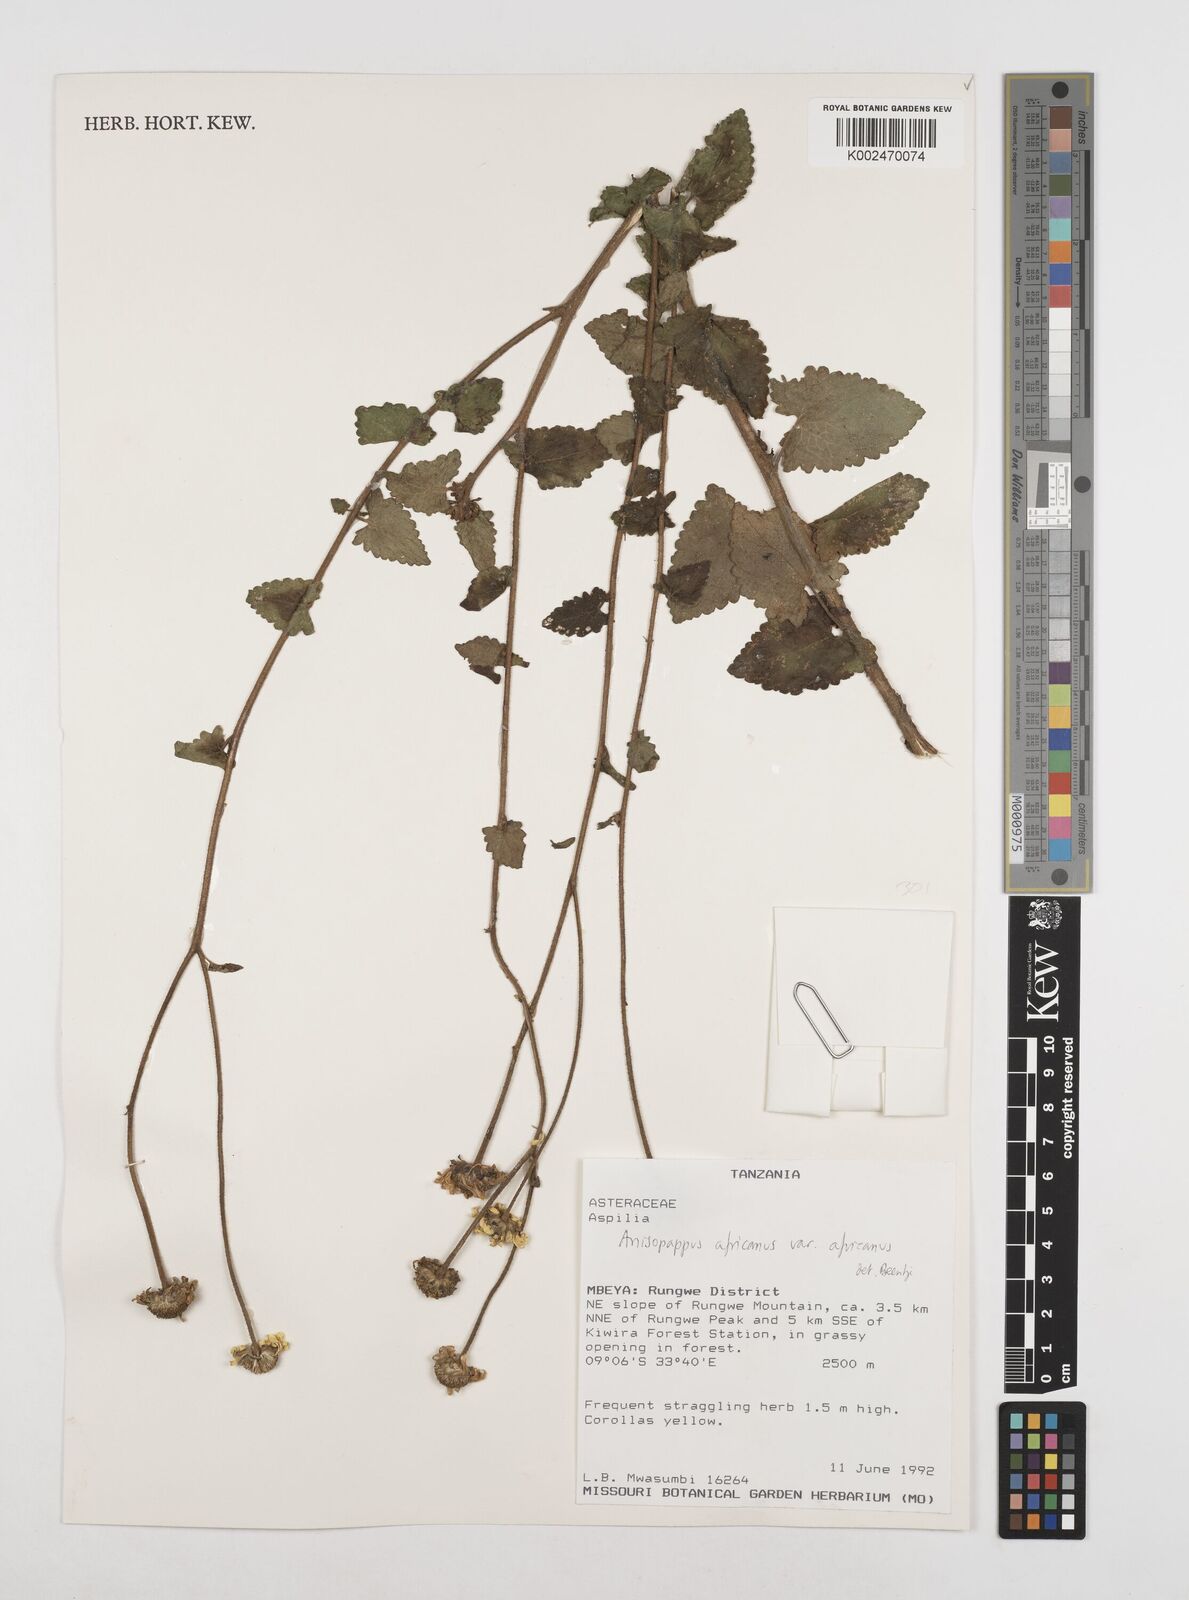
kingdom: Plantae
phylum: Tracheophyta
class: Magnoliopsida
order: Asterales
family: Asteraceae
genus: Anisopappus
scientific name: Anisopappus buchwaldii
